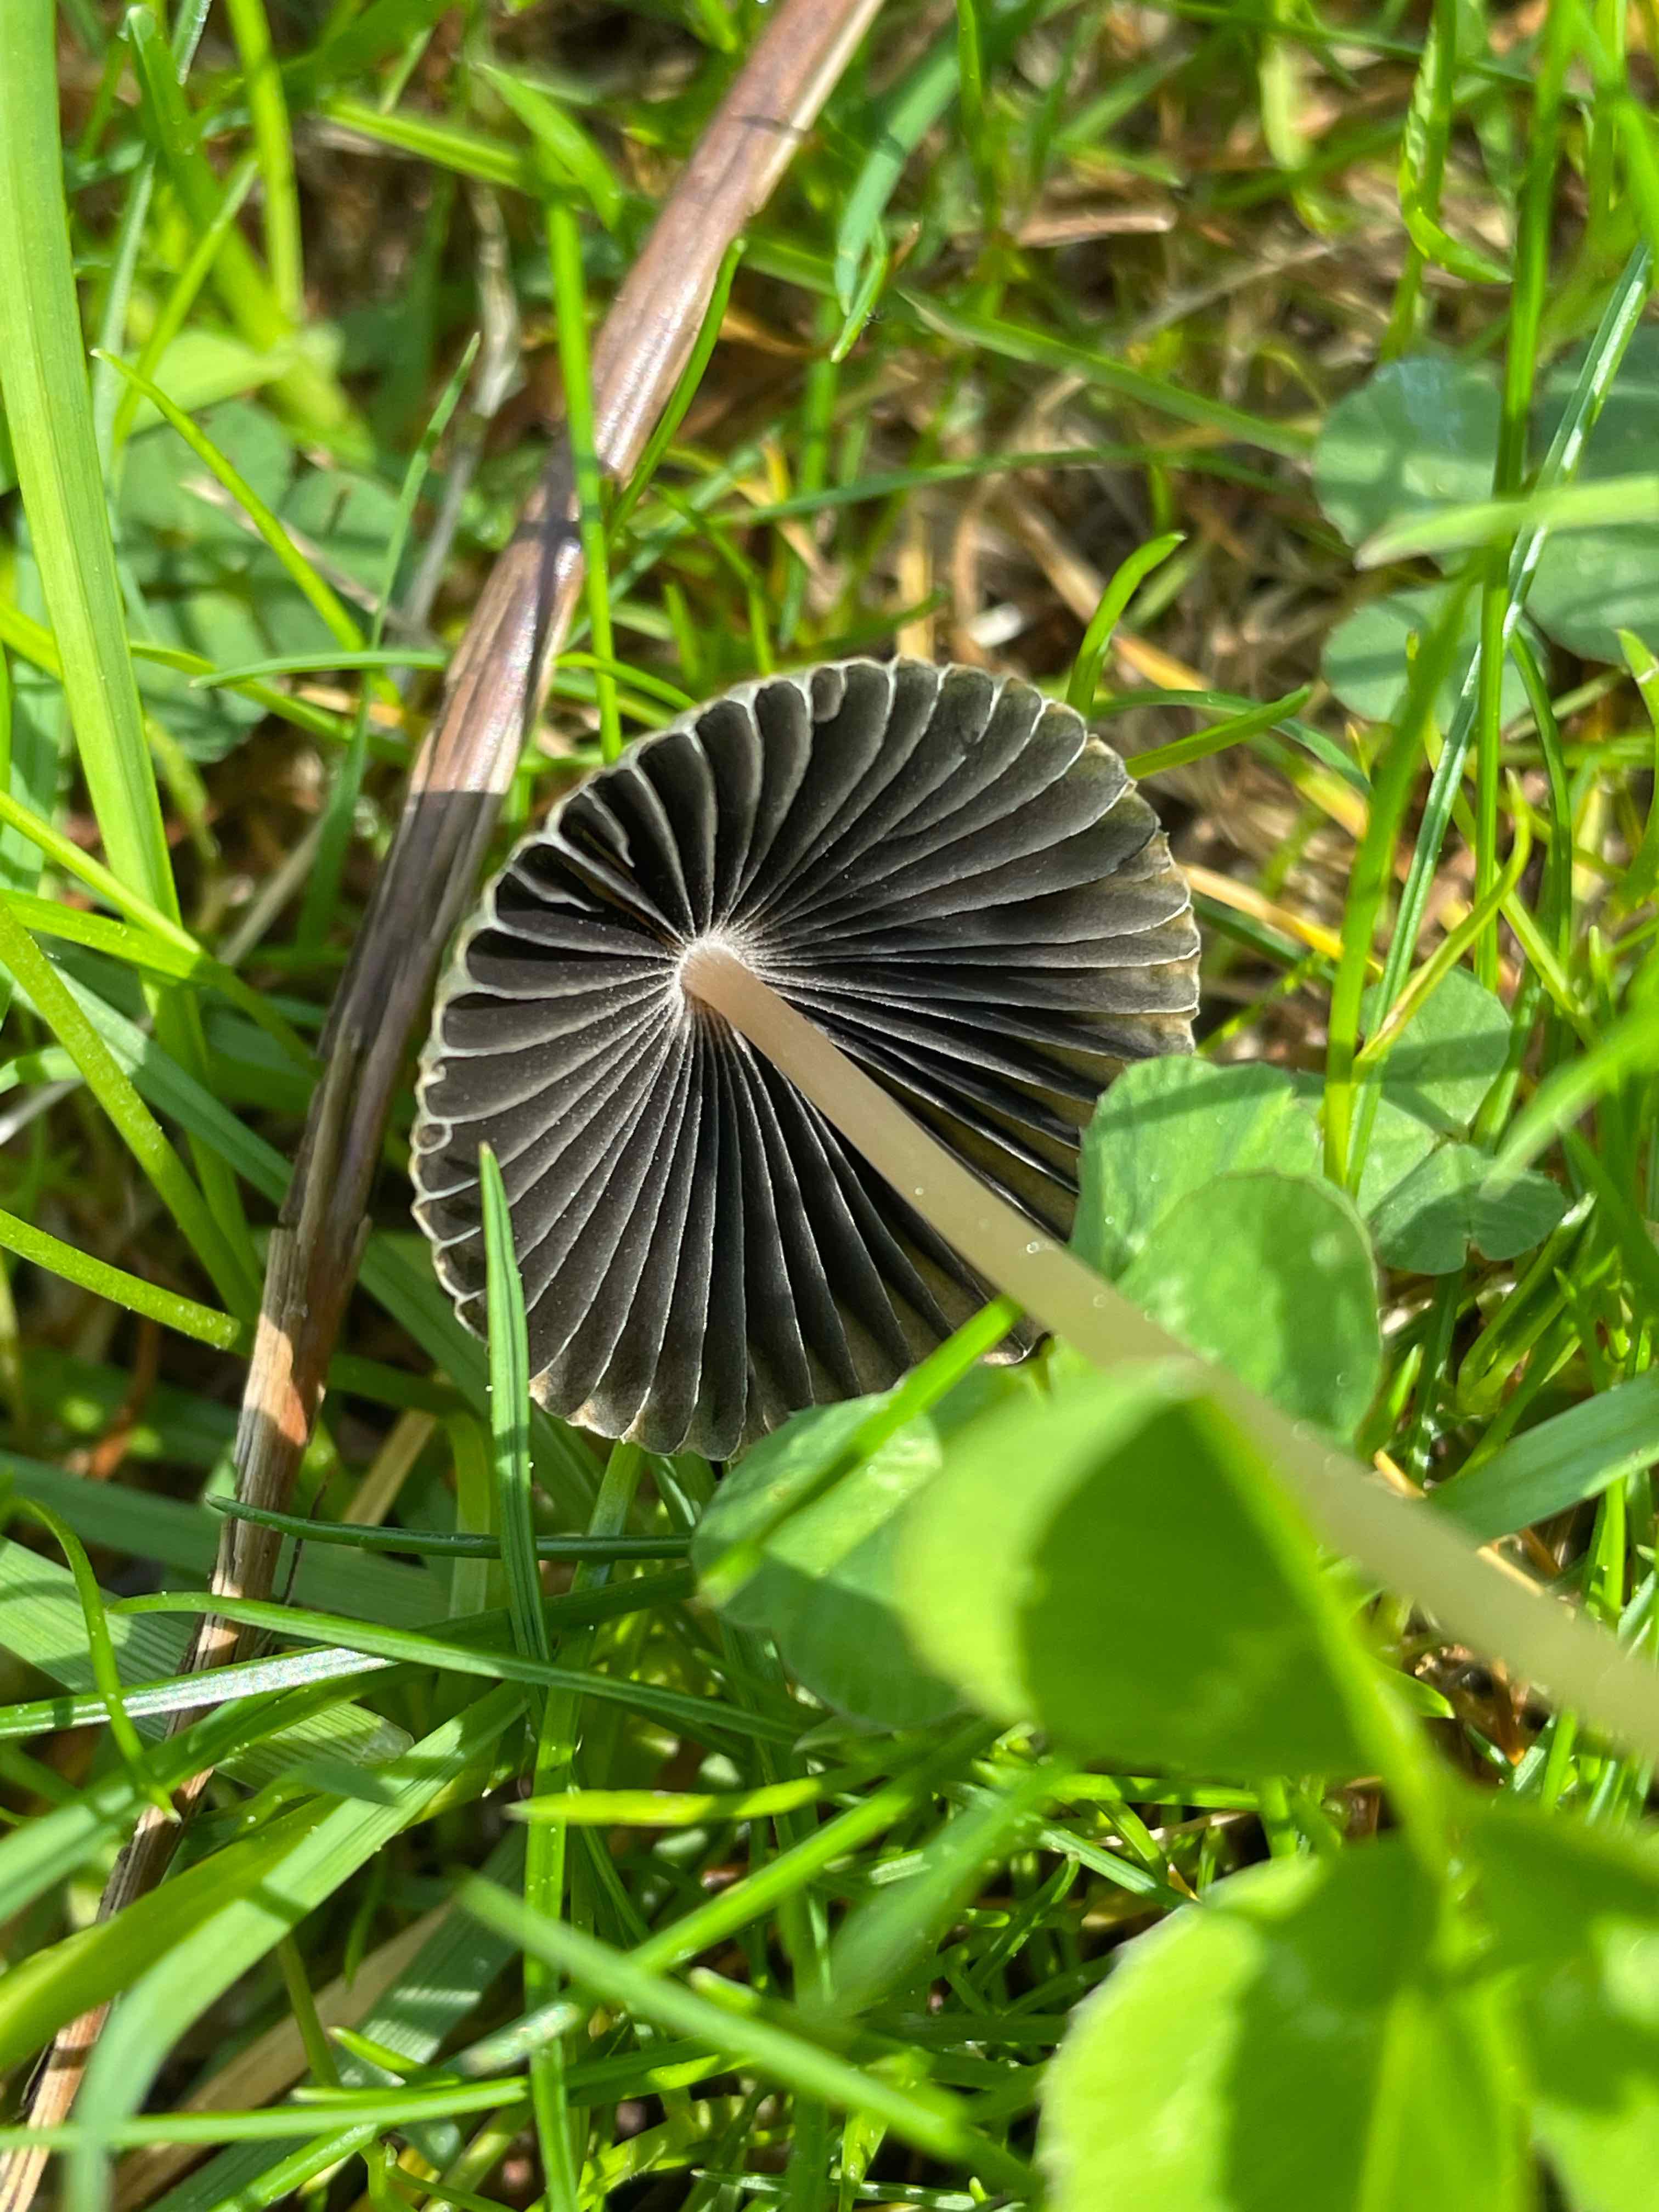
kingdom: Fungi
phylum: Basidiomycota
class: Agaricomycetes
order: Agaricales
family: Psathyrellaceae
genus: Parasola
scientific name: Parasola schroeteri
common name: bredsporet hjulhat
